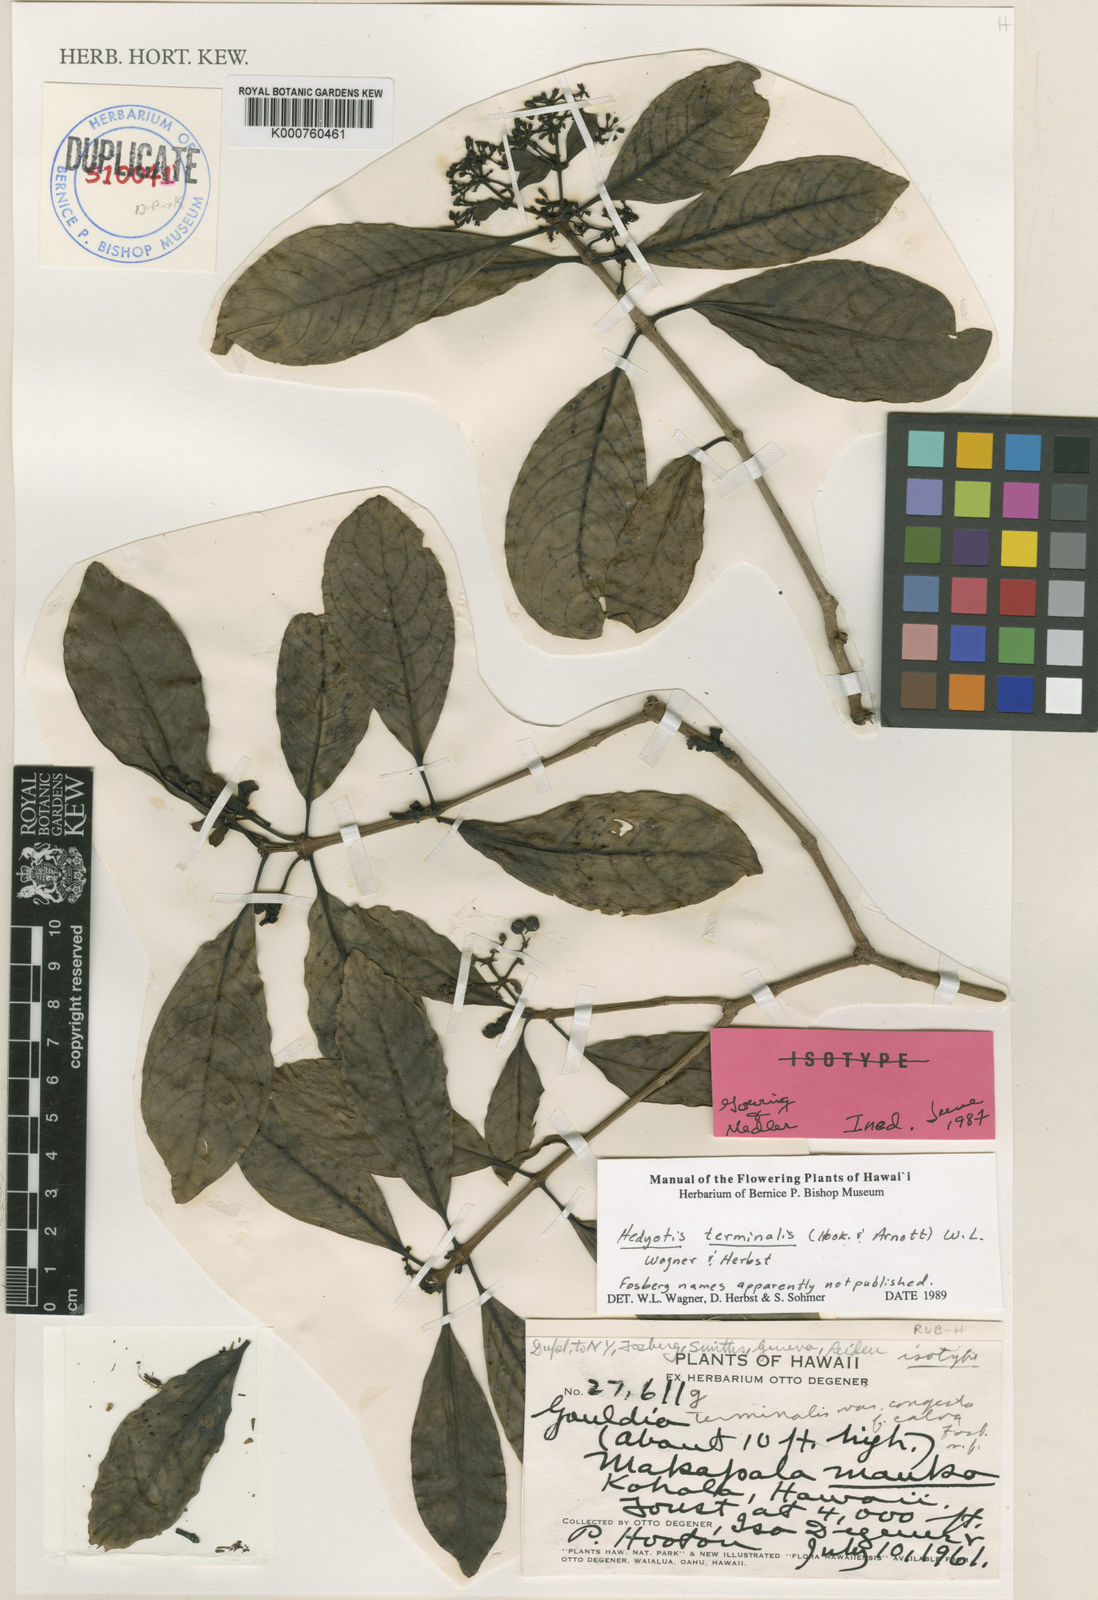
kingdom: Plantae
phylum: Tracheophyta
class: Magnoliopsida
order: Gentianales
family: Rubiaceae
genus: Kadua
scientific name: Kadua affinis
